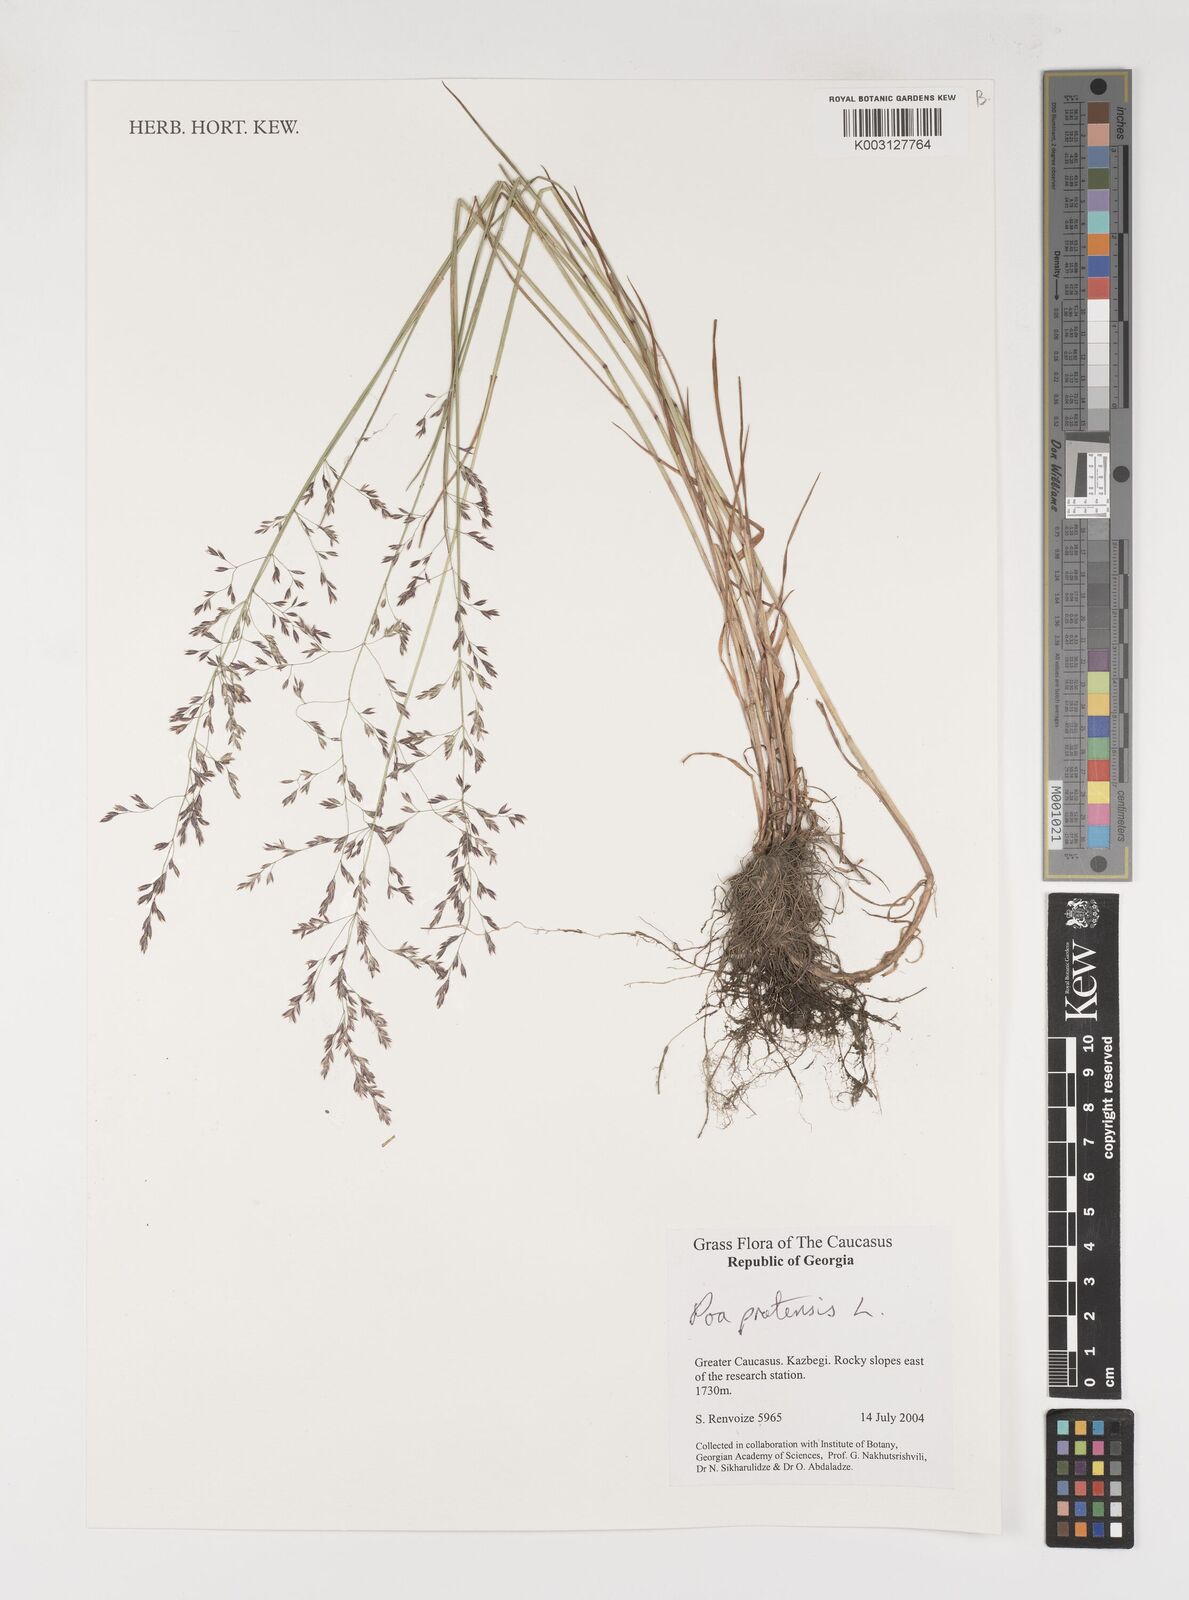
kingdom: Plantae
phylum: Tracheophyta
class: Liliopsida
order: Poales
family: Poaceae
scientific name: Poaceae
